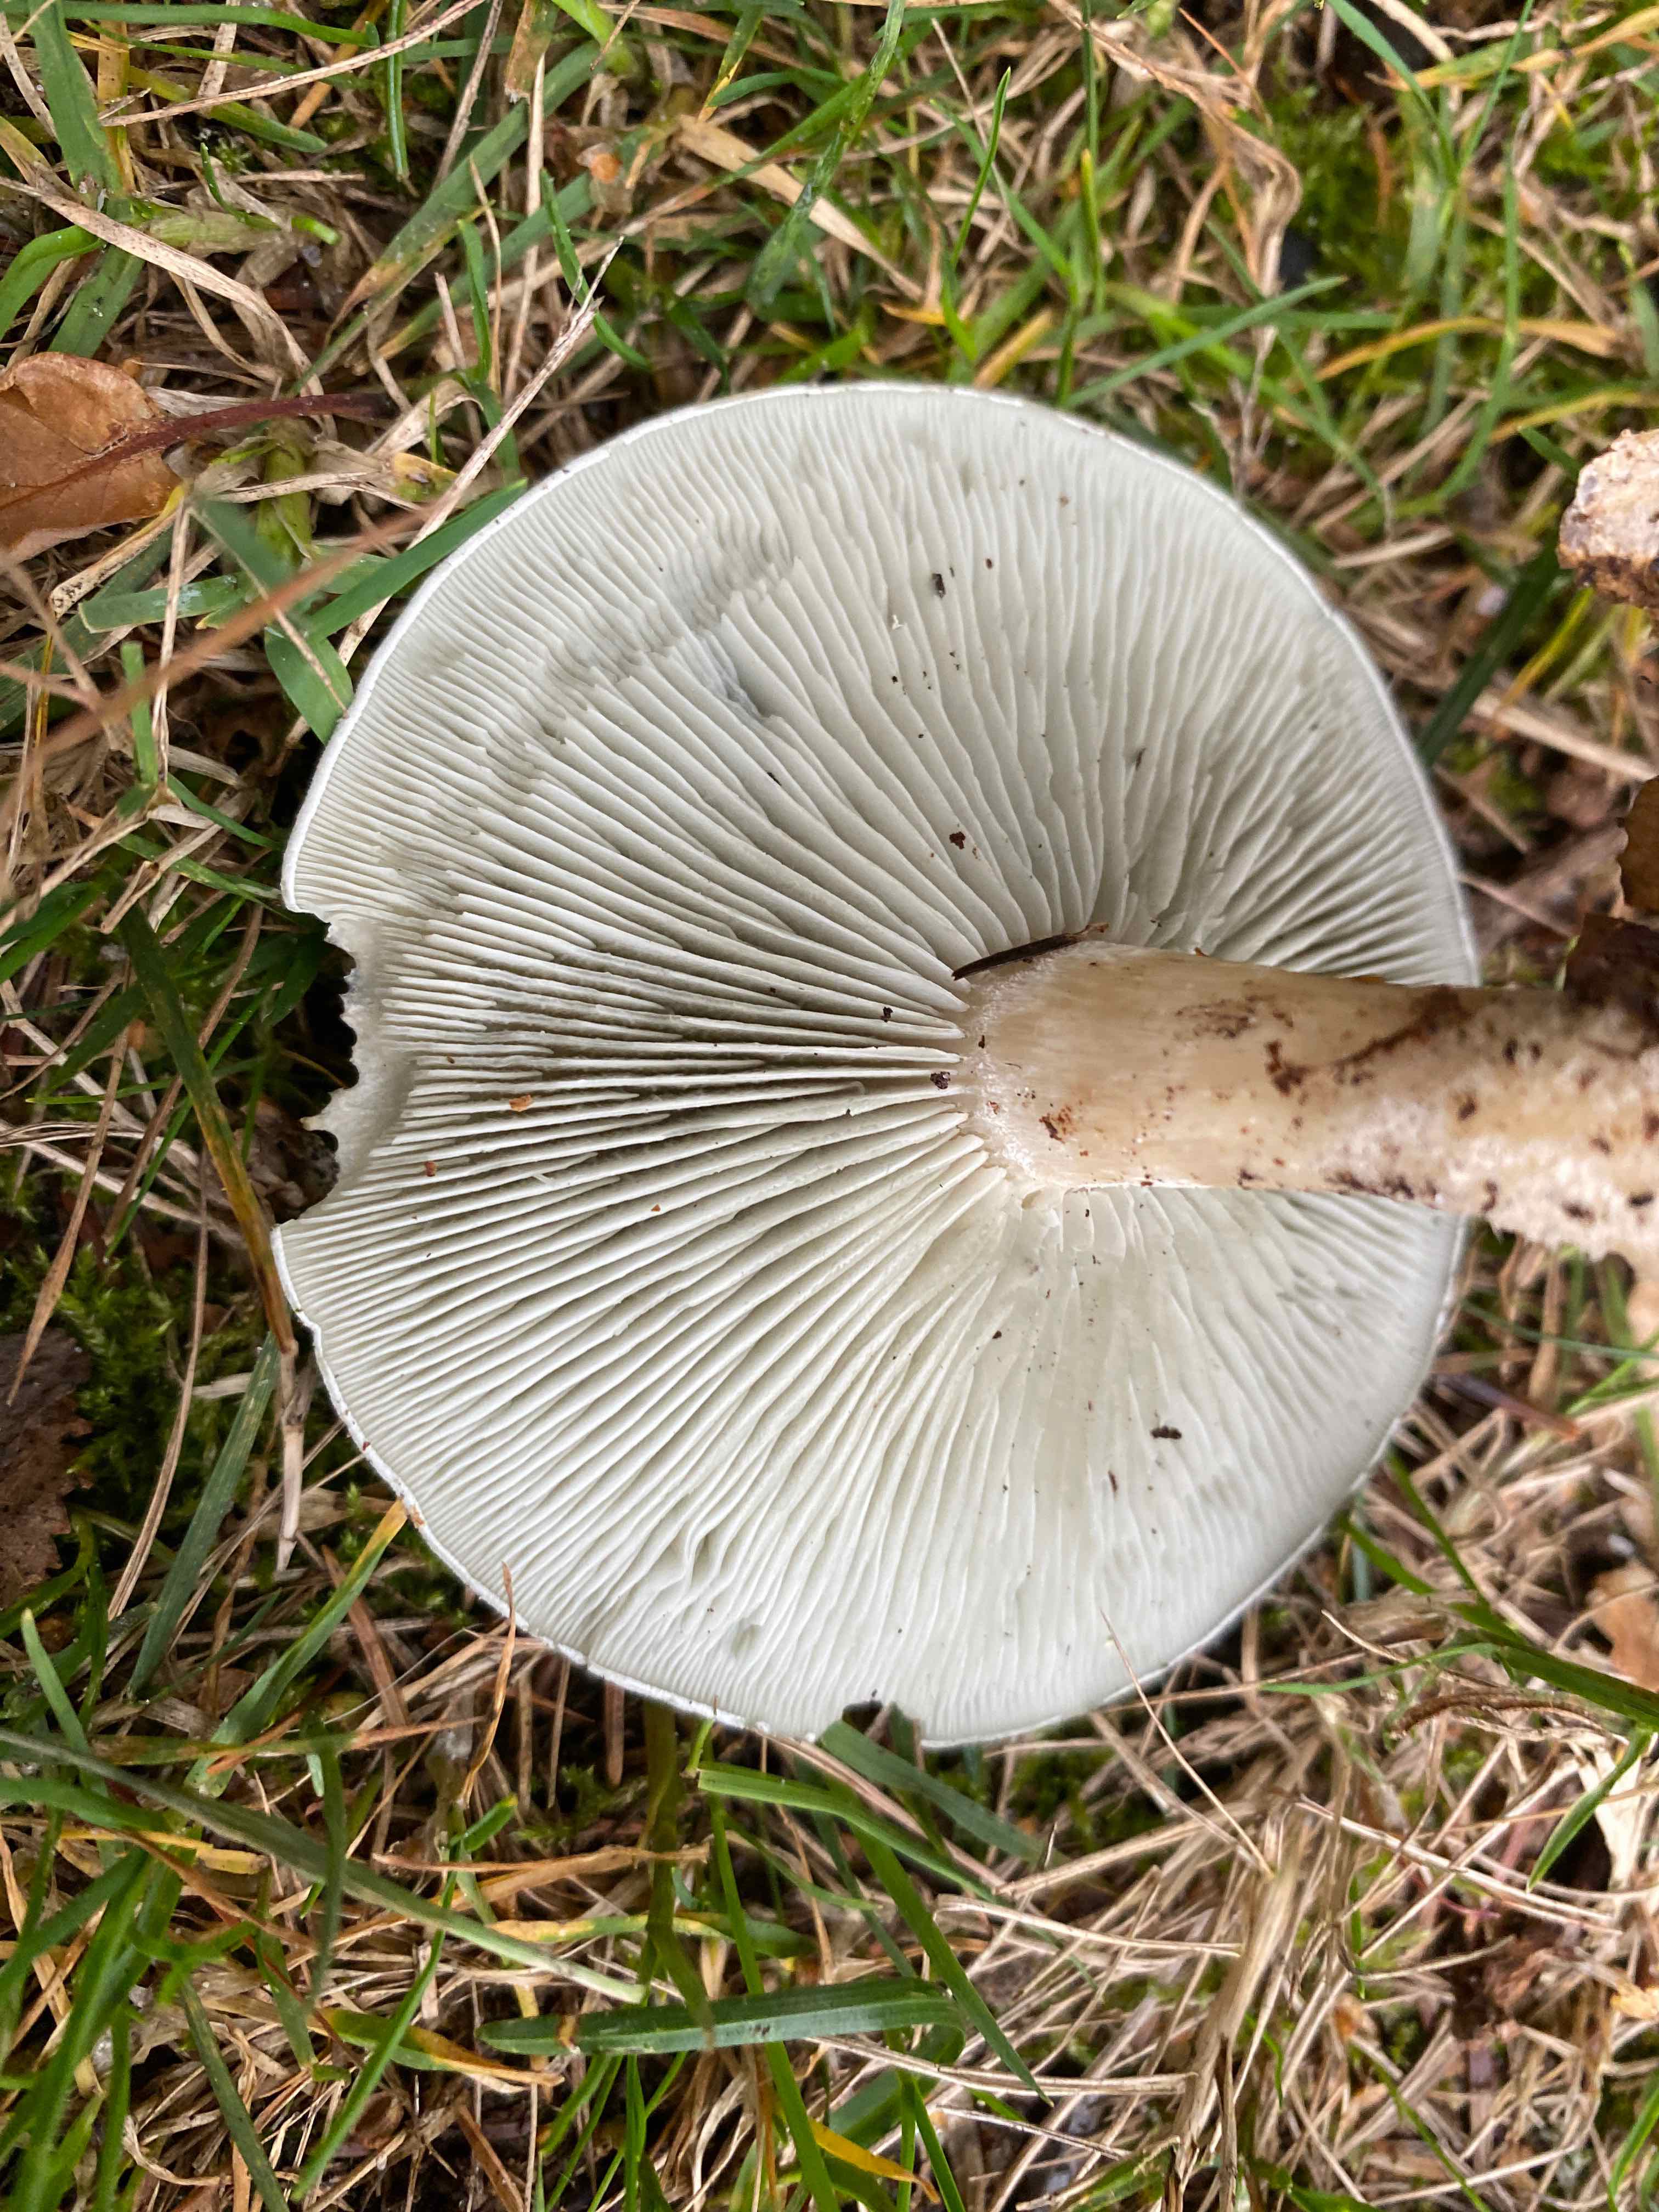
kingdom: Fungi
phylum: Basidiomycota
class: Agaricomycetes
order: Agaricales
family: Tricholomataceae
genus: Clitocybe
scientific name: Clitocybe odora
